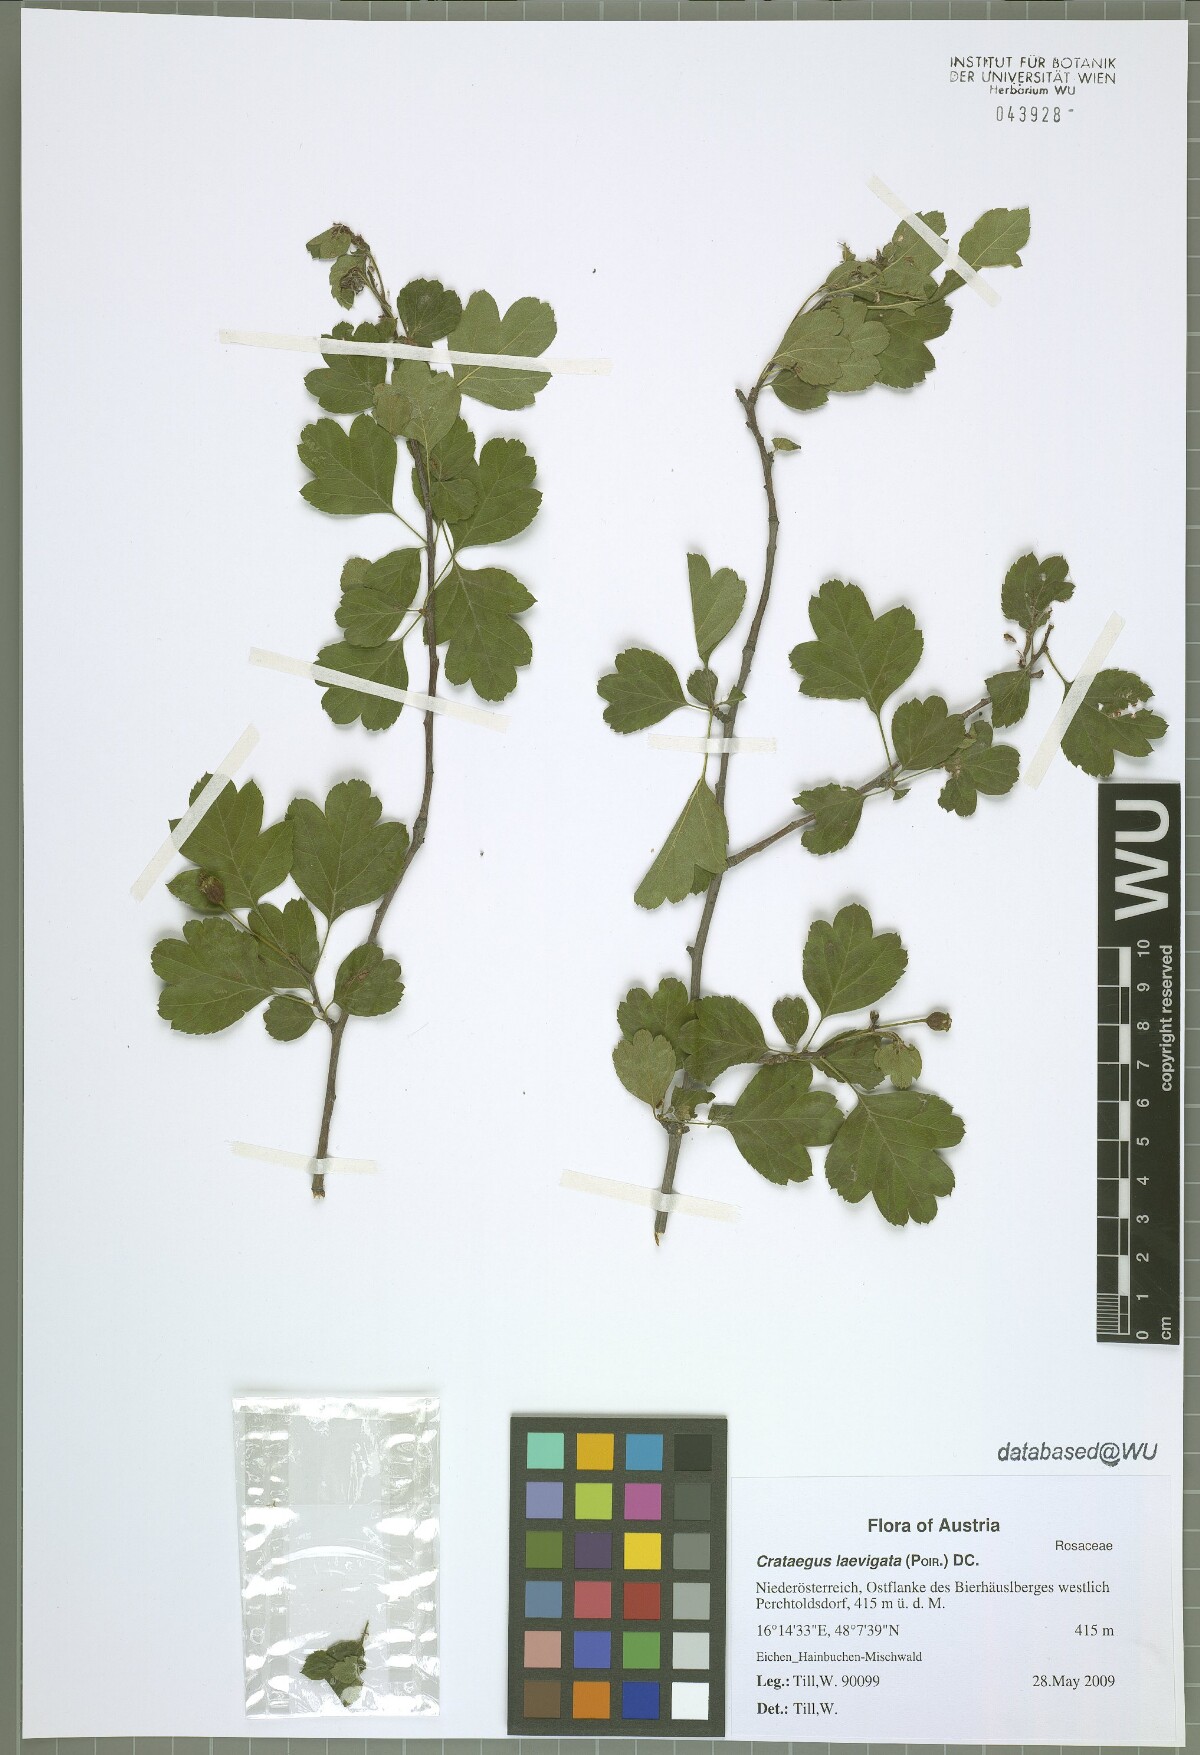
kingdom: Plantae
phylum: Tracheophyta
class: Magnoliopsida
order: Rosales
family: Rosaceae
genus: Crataegus
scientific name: Crataegus laevigata
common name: Midland hawthorn
